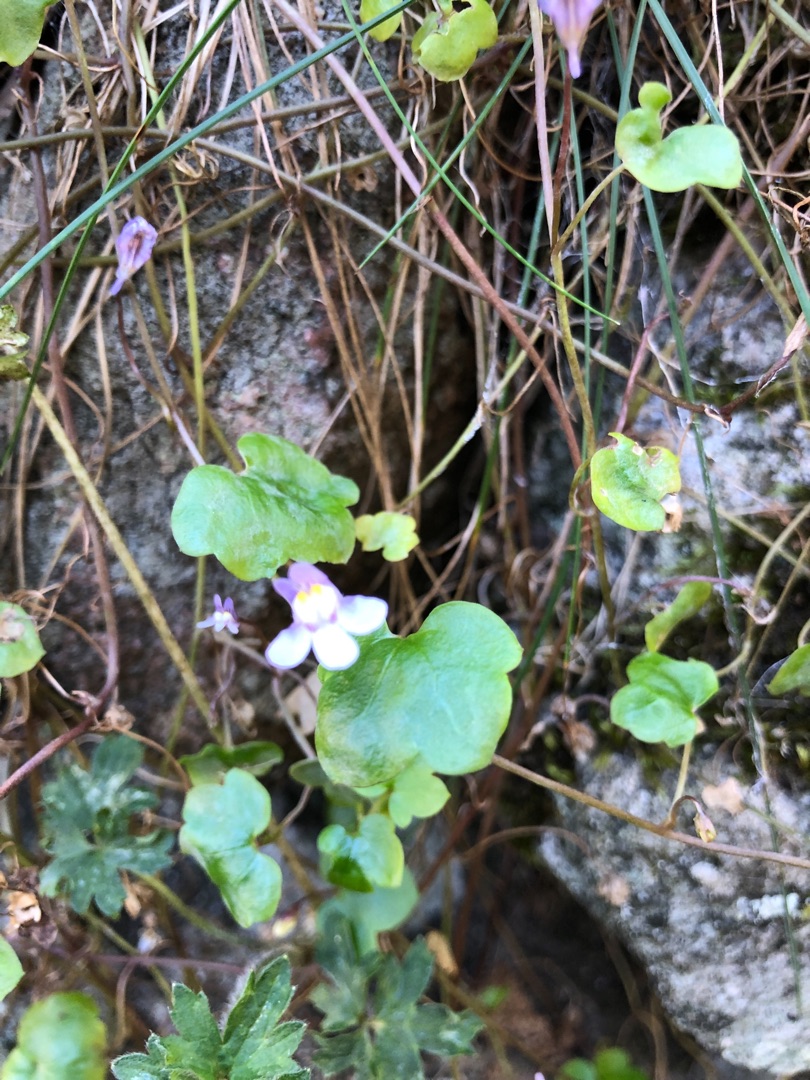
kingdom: Plantae
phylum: Tracheophyta
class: Magnoliopsida
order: Lamiales
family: Plantaginaceae
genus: Cymbalaria
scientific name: Cymbalaria muralis
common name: Vedbend-torskemund
